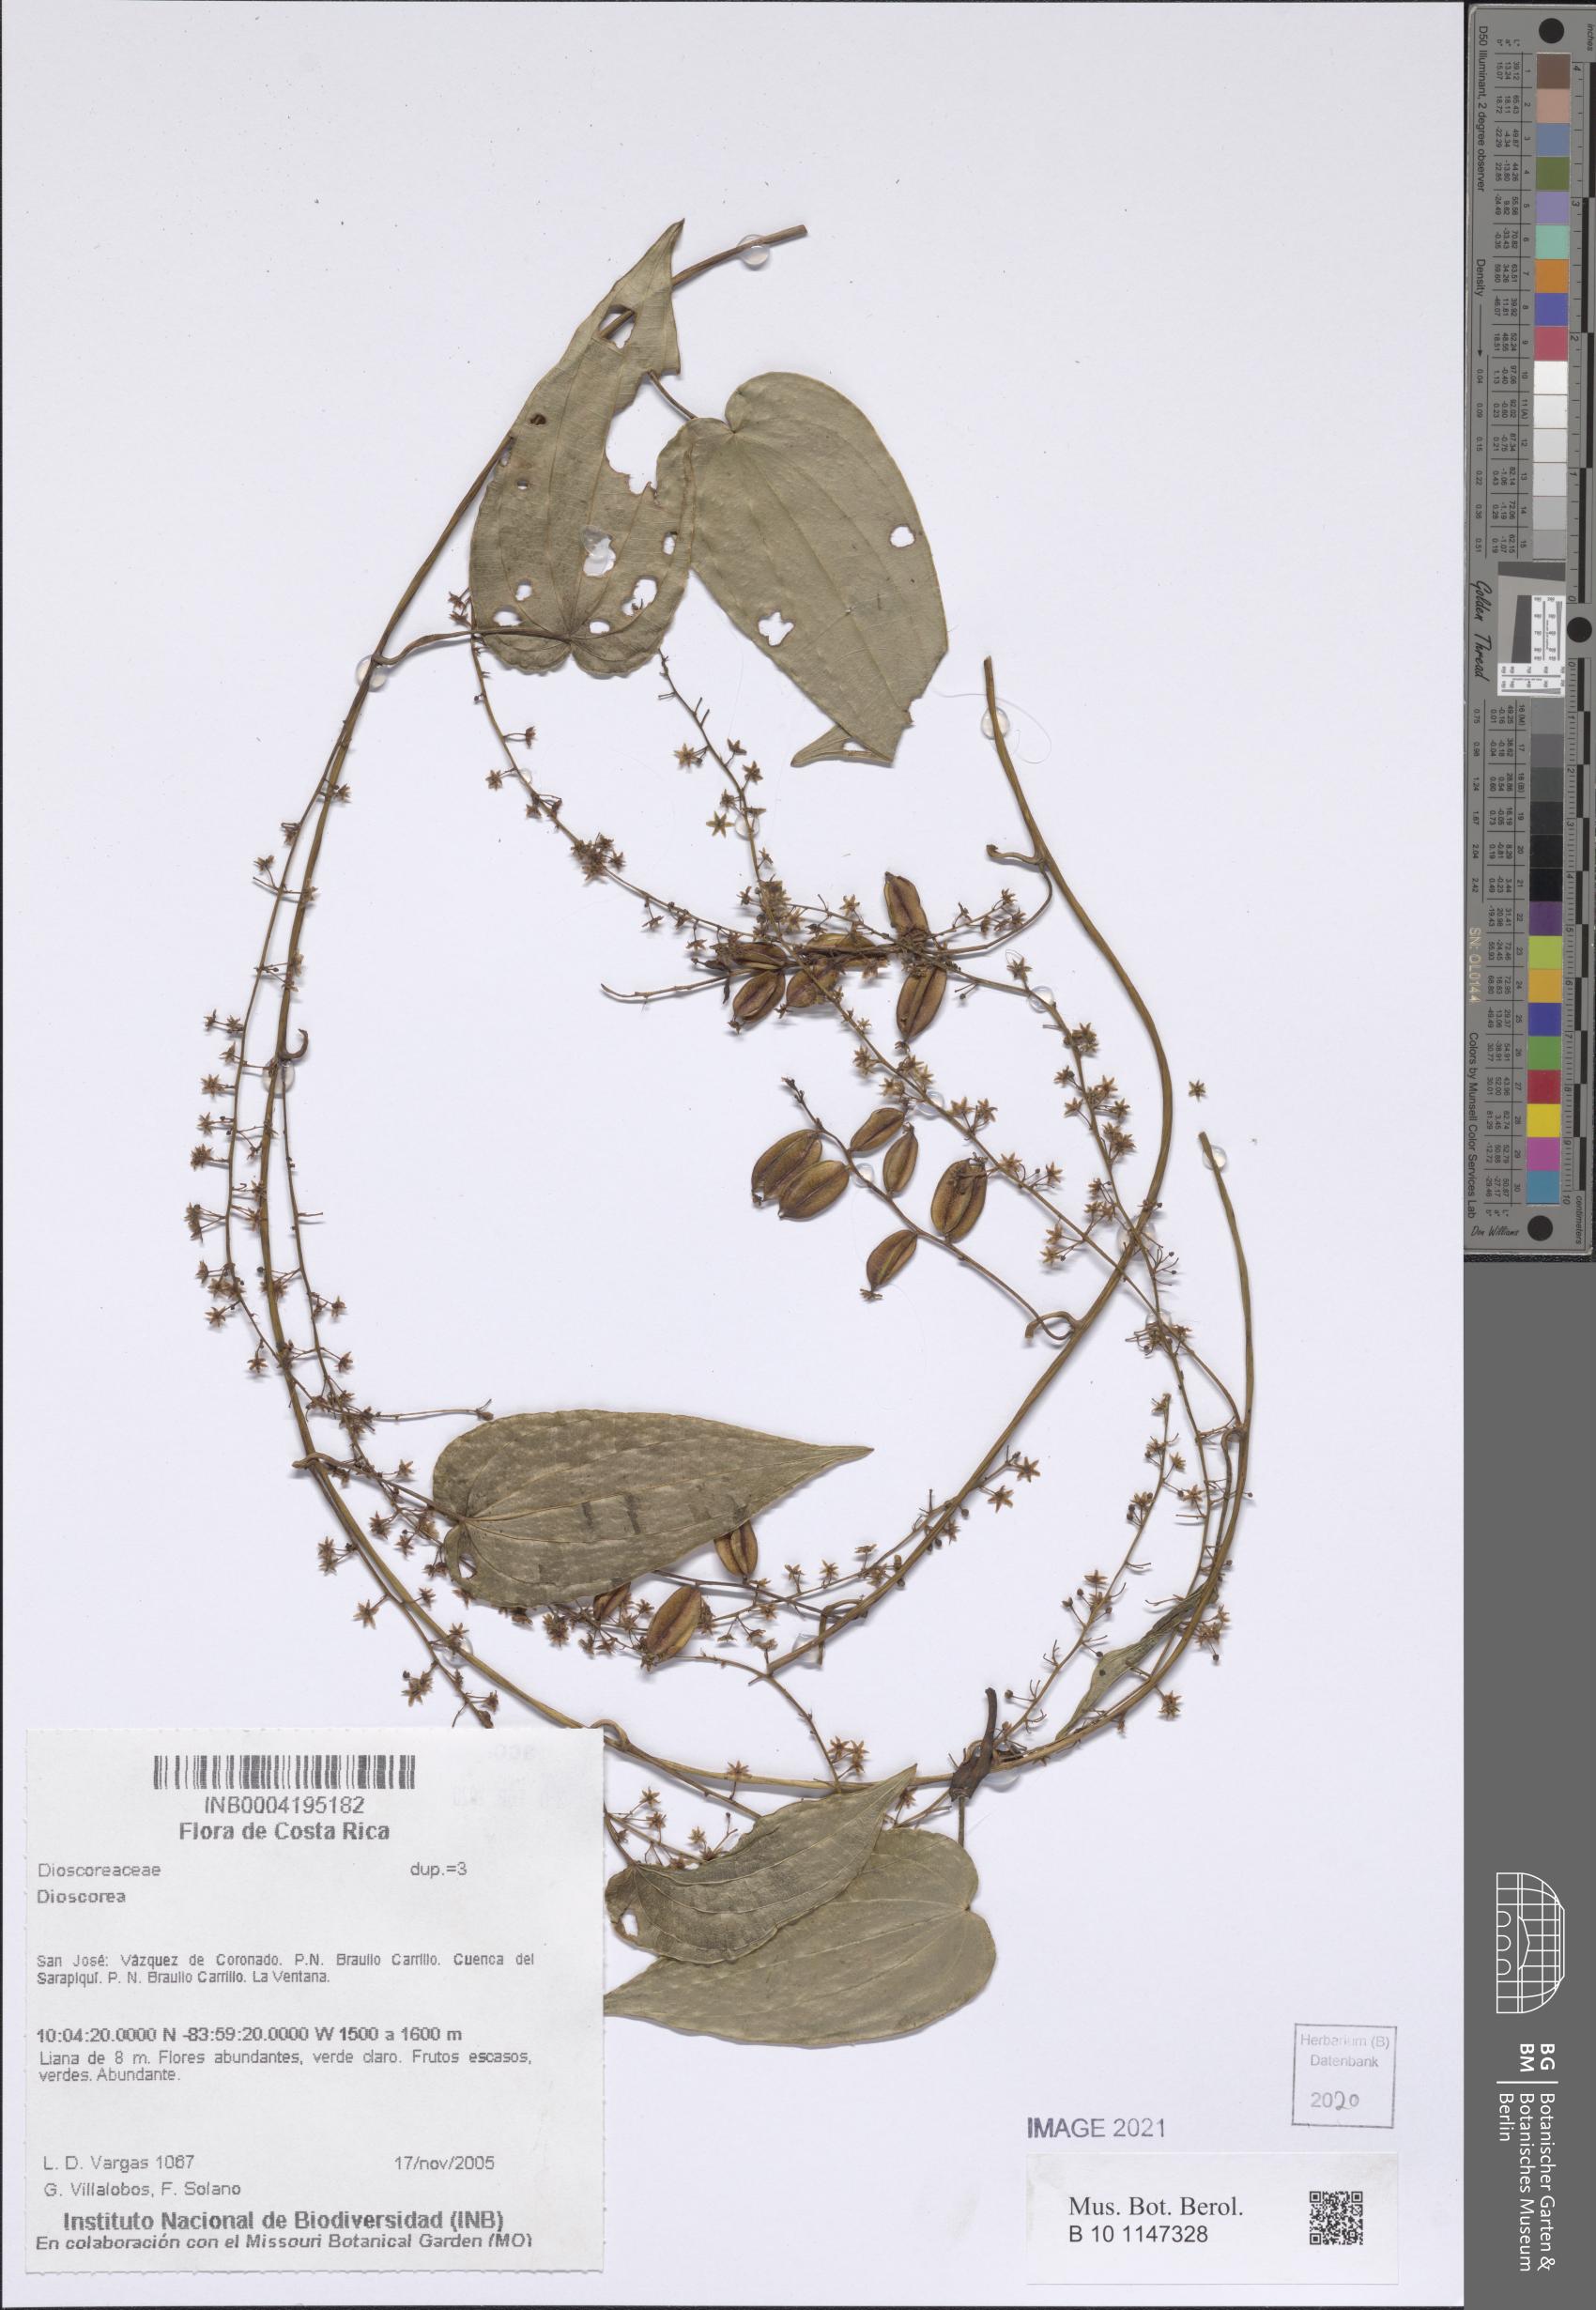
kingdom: Plantae
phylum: Tracheophyta
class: Liliopsida
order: Dioscoreales
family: Dioscoreaceae
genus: Dioscorea
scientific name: Dioscorea
